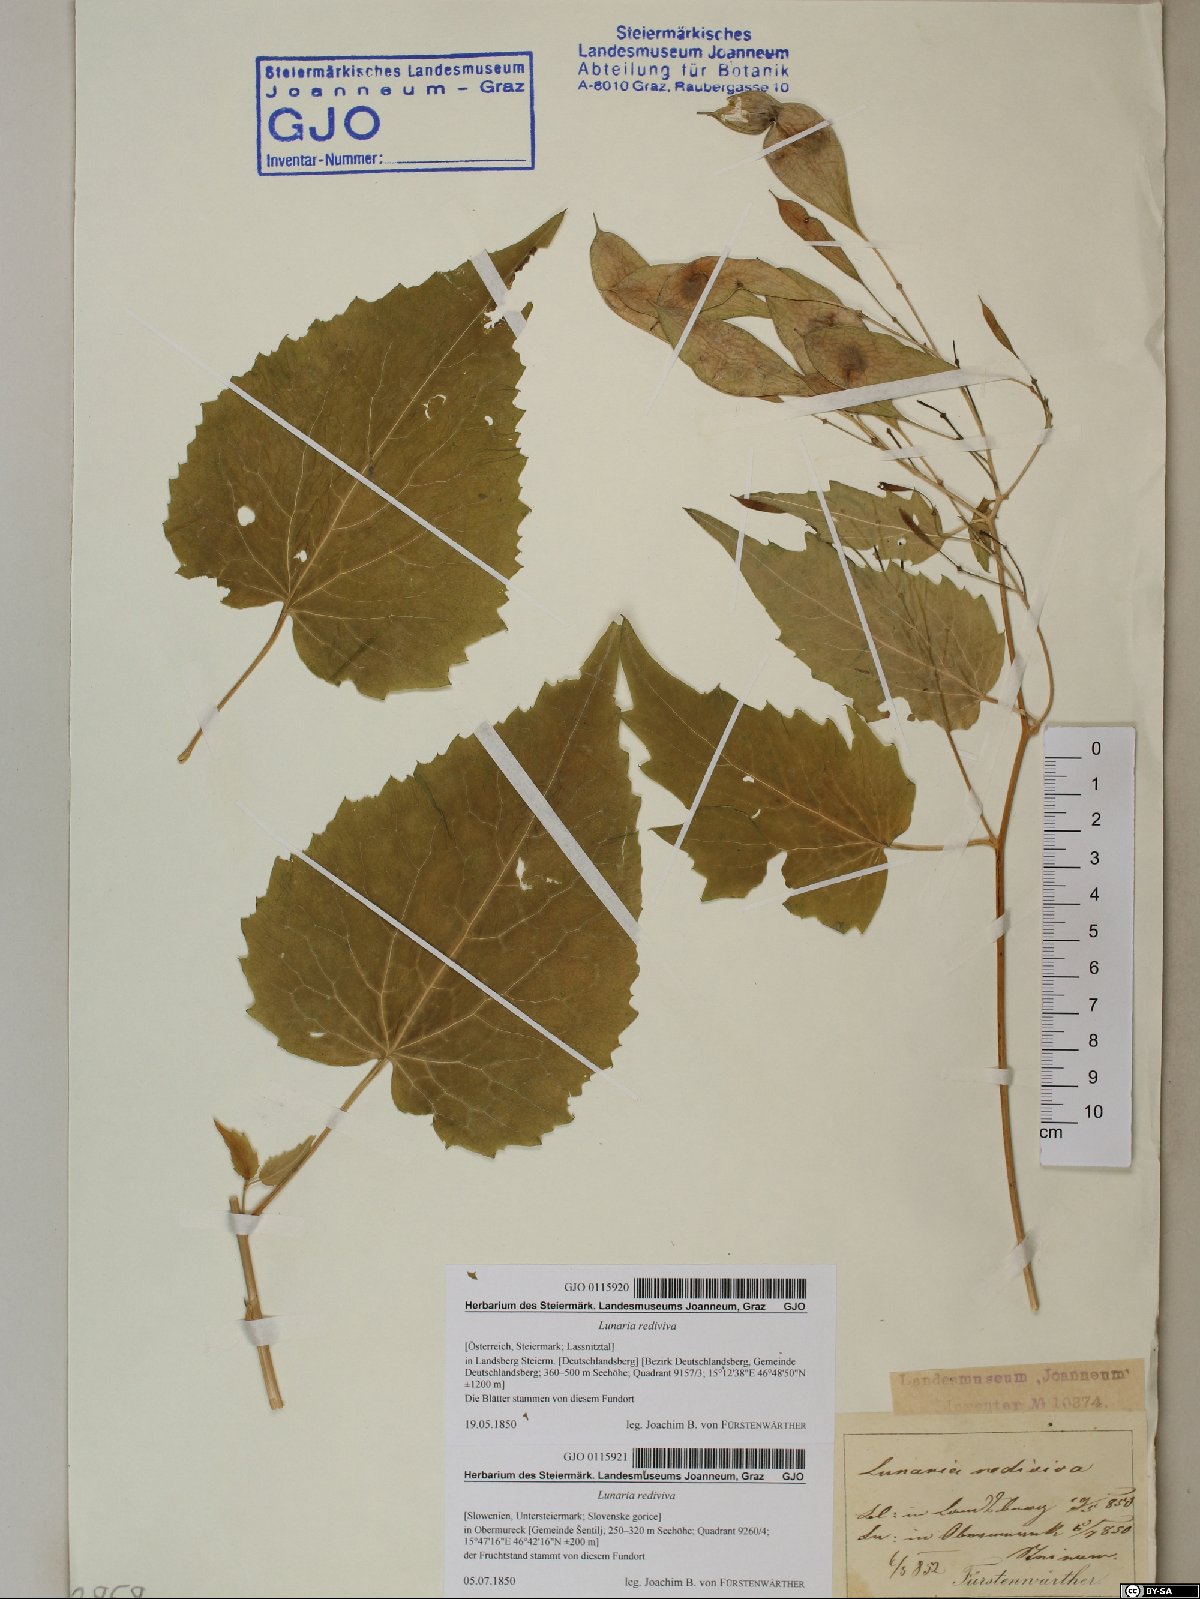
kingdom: Plantae
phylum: Tracheophyta
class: Magnoliopsida
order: Brassicales
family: Brassicaceae
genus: Lunaria
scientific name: Lunaria rediviva
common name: Perennial honesty
